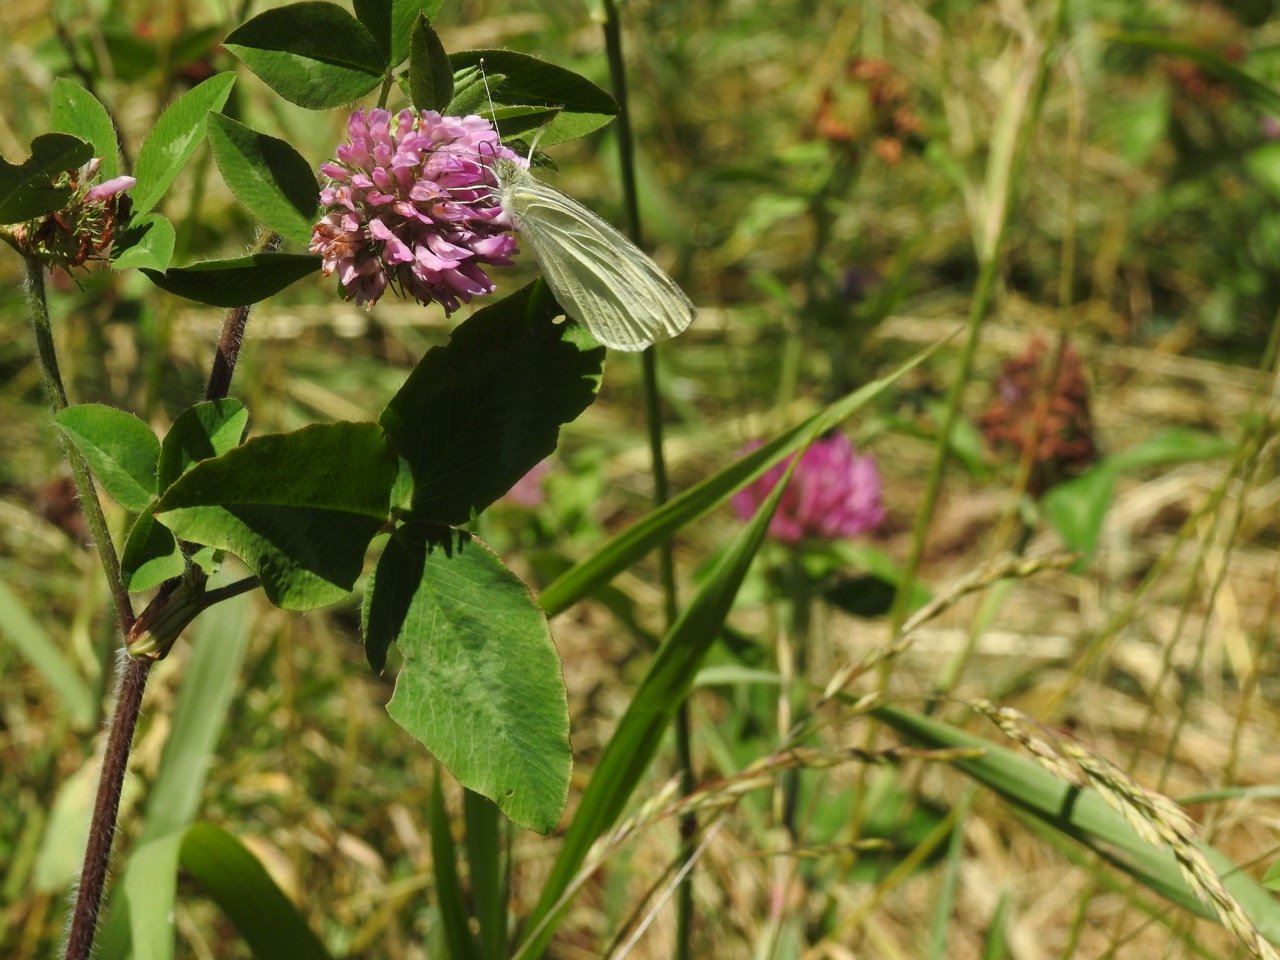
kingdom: Animalia
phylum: Arthropoda
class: Insecta
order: Lepidoptera
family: Pieridae
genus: Pieris
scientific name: Pieris rapae
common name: Cabbage White
